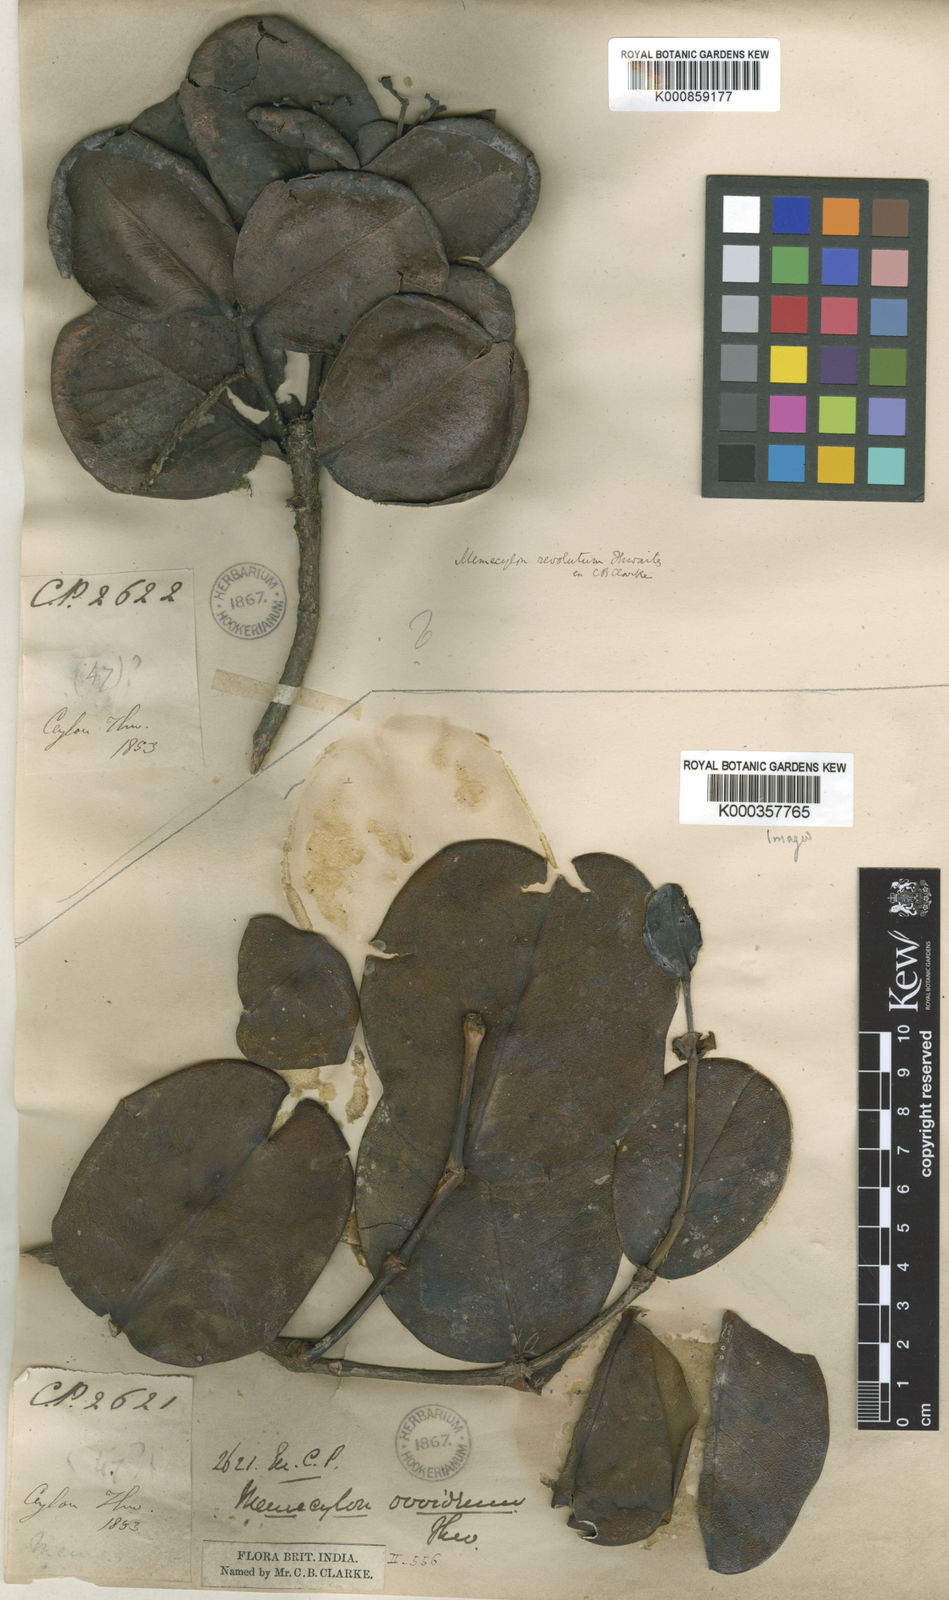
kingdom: Plantae
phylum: Tracheophyta
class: Magnoliopsida
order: Myrtales
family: Melastomataceae
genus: Memecylon
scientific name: Memecylon ovoideum
